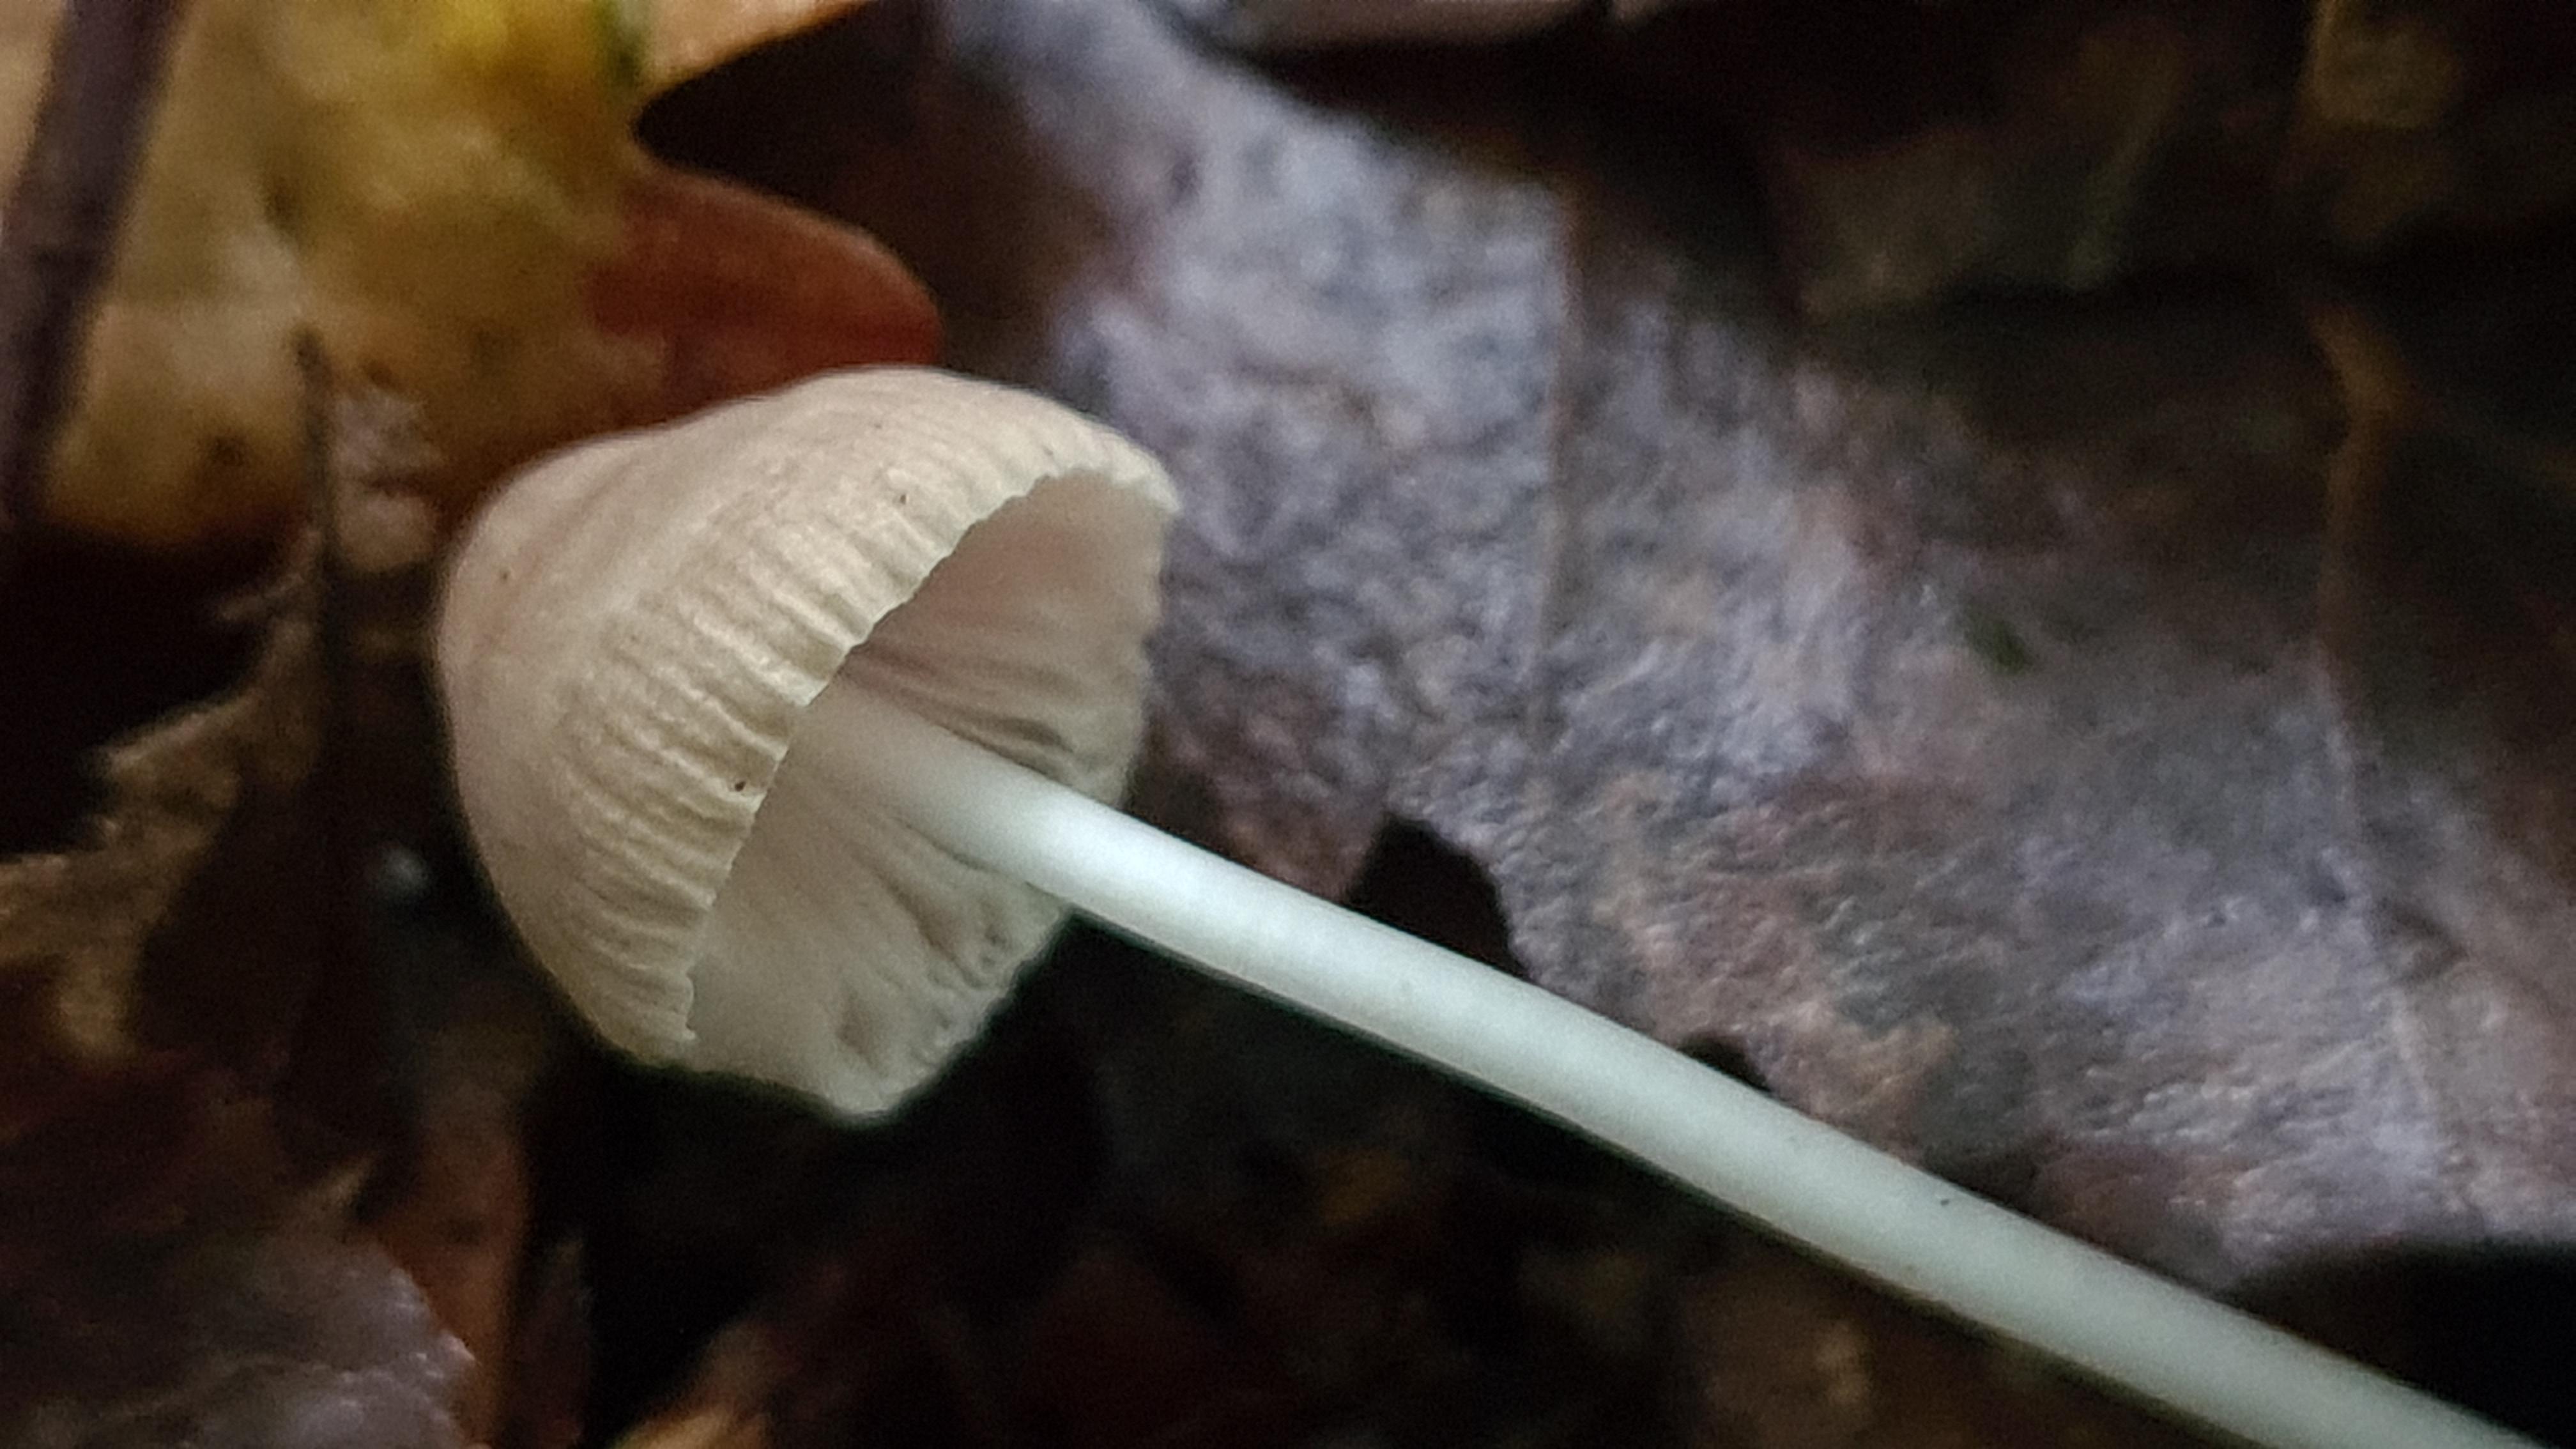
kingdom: Fungi
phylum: Basidiomycota
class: Agaricomycetes
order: Agaricales
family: Mycenaceae
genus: Mycena
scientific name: Mycena vitilis
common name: blankstokket huesvamp
